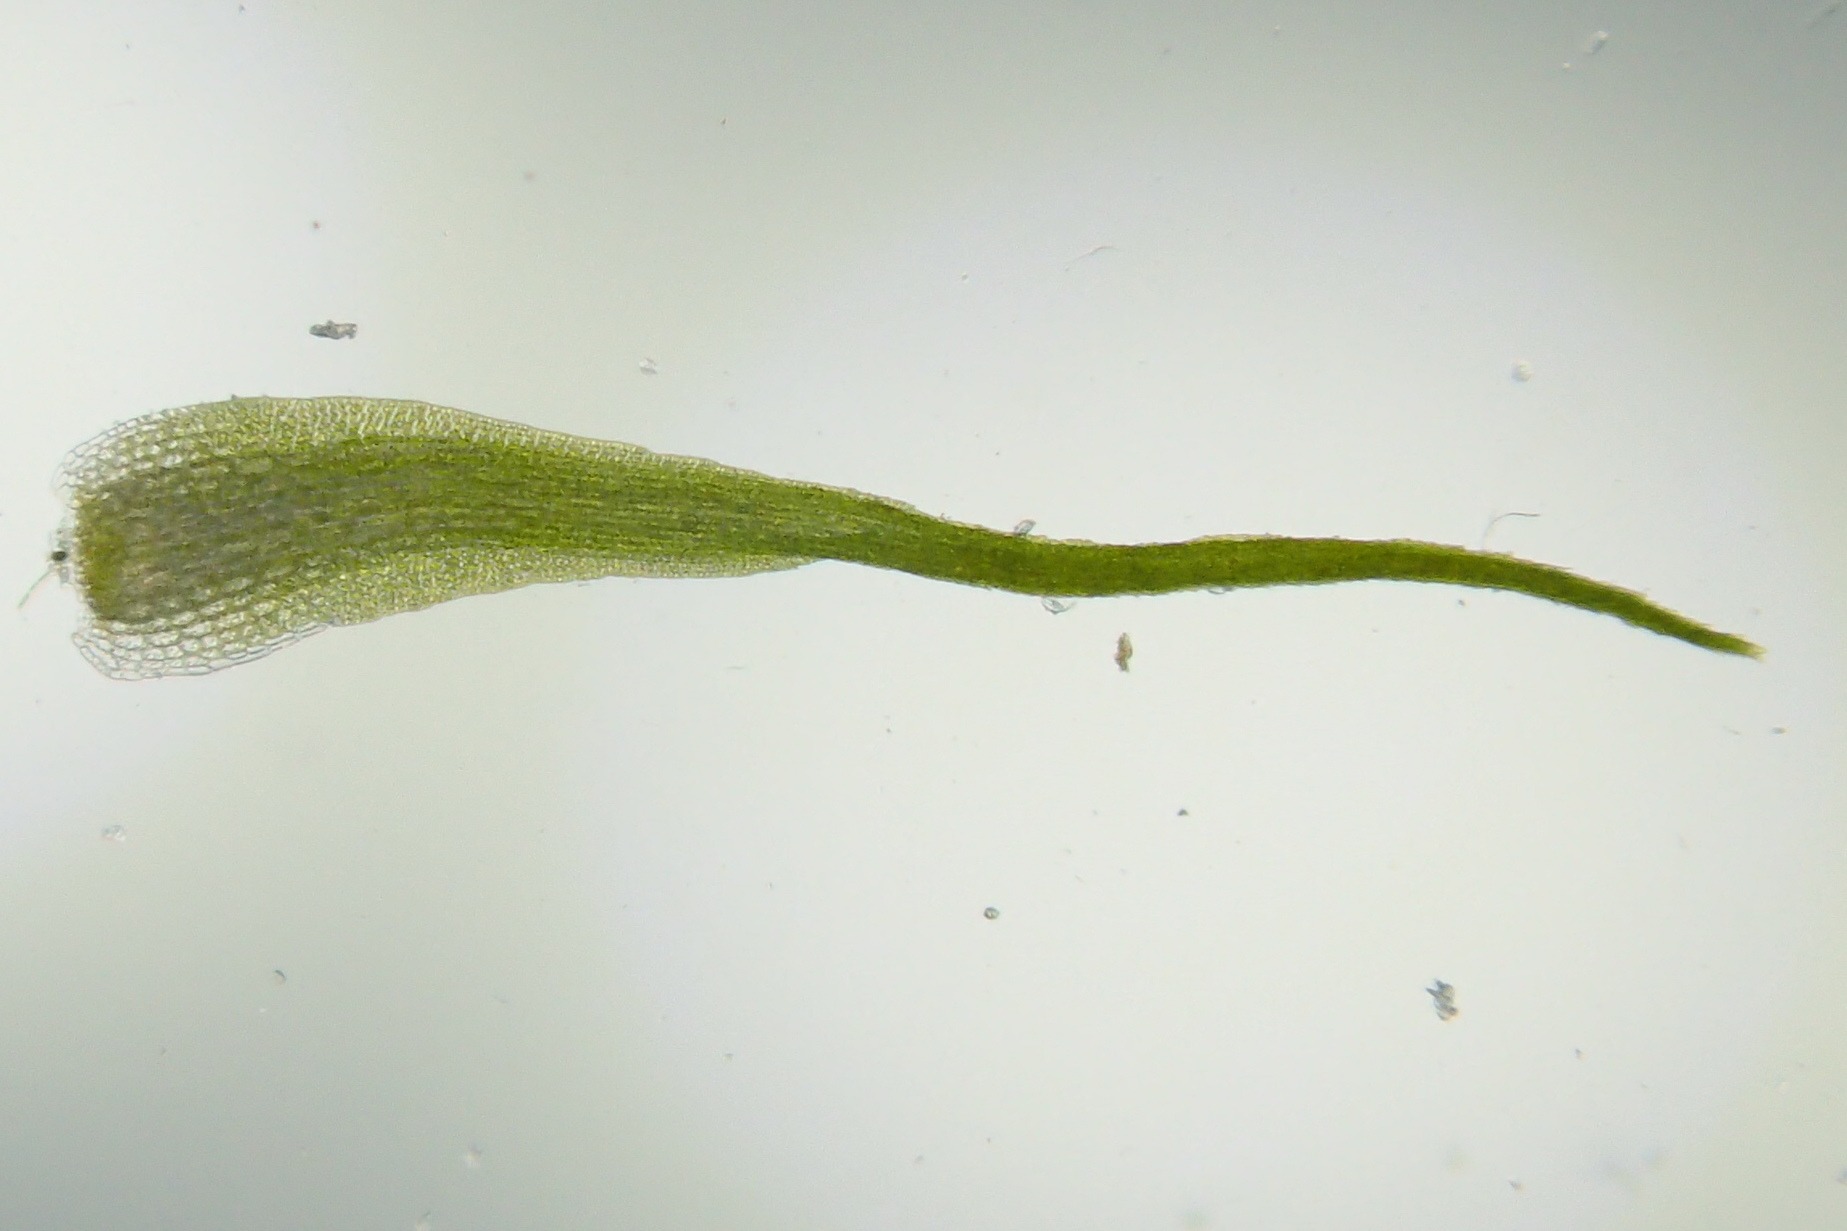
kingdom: Plantae
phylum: Bryophyta
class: Bryopsida
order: Dicranales
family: Leucobryaceae
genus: Campylopus
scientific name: Campylopus pyriformis
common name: Almindelig bredribbe
